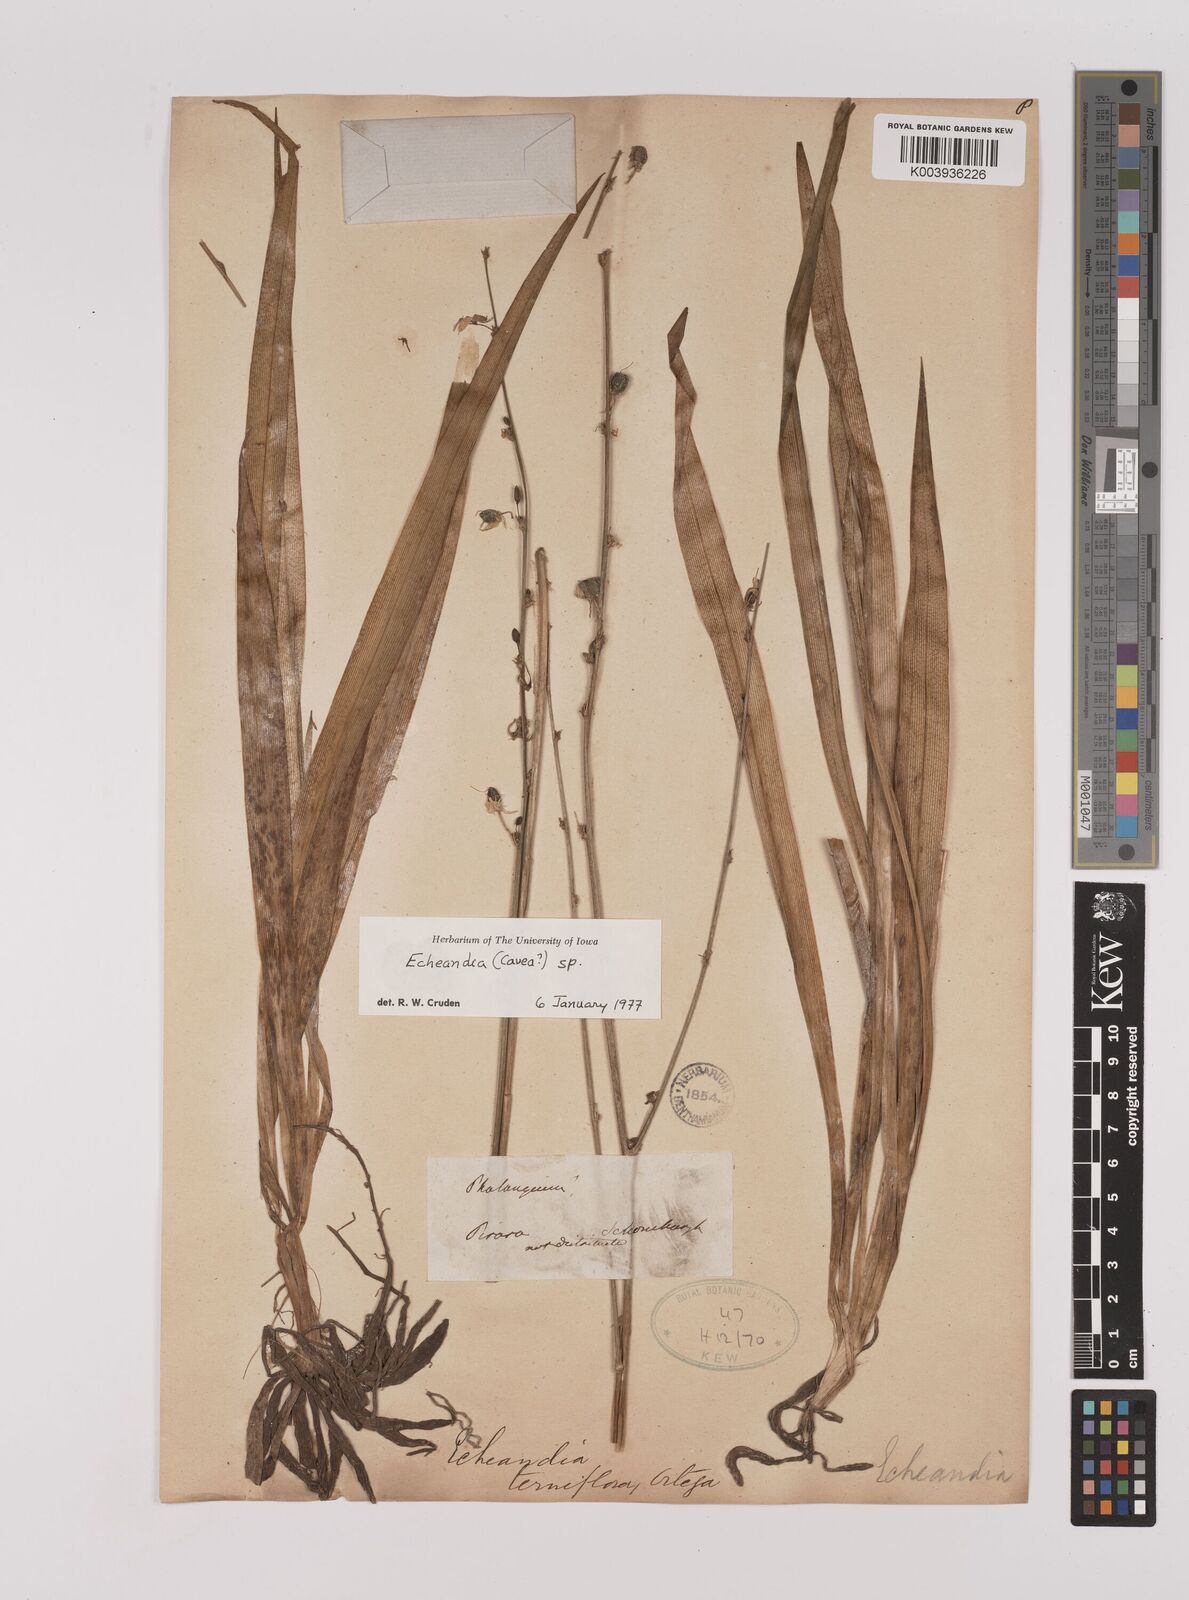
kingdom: Plantae
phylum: Tracheophyta
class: Liliopsida
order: Asparagales
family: Asparagaceae
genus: Echeandia
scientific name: Echeandia
